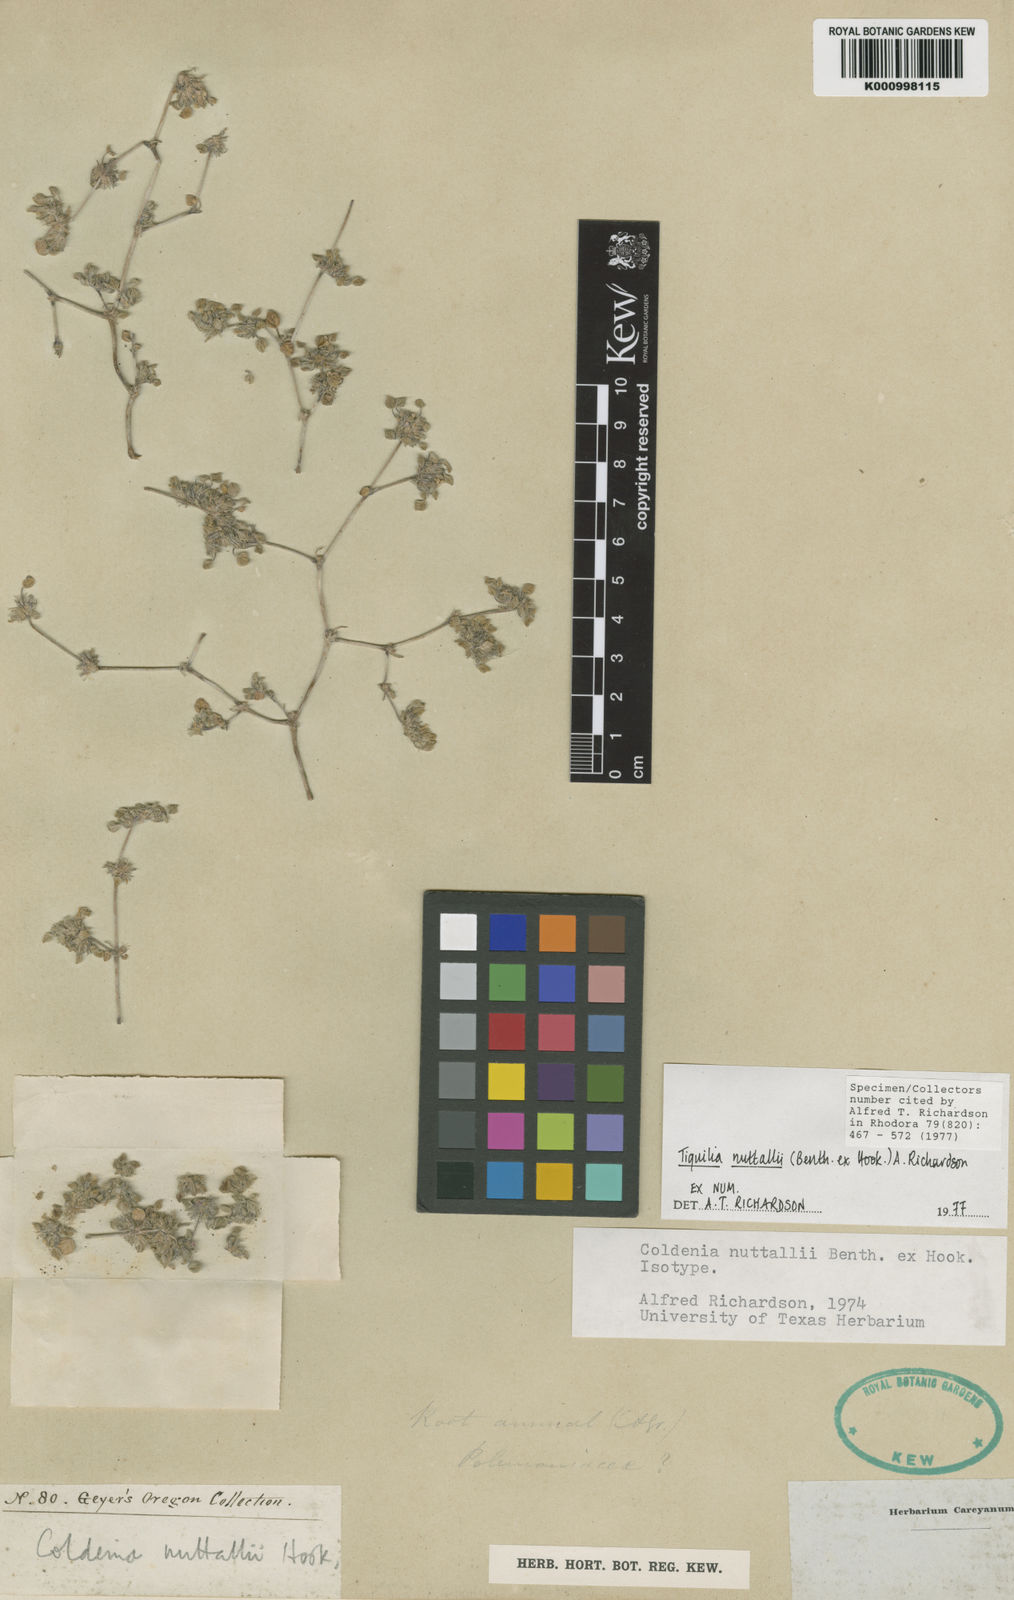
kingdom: Plantae
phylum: Tracheophyta
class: Magnoliopsida
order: Boraginales
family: Ehretiaceae
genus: Tiquilia
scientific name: Tiquilia nuttallii
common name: Rosette tiquilia
